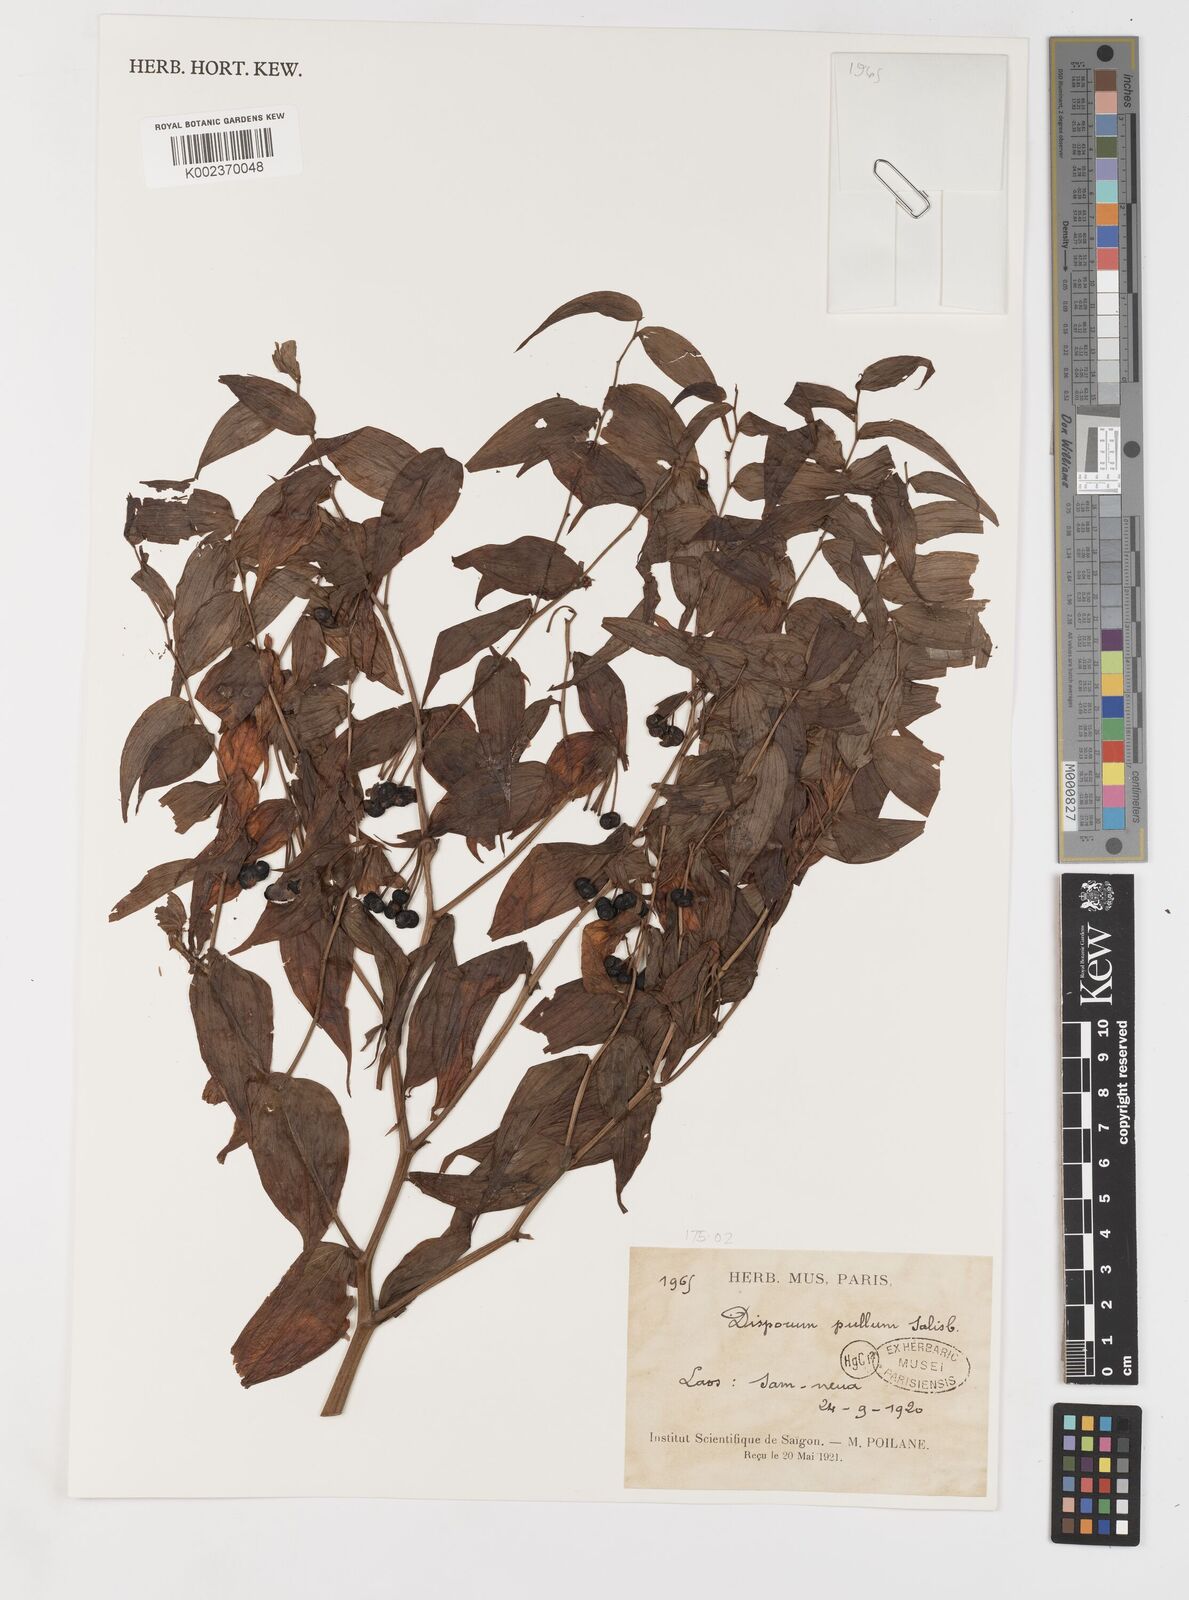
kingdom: Plantae
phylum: Tracheophyta
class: Liliopsida
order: Liliales
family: Colchicaceae
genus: Disporum
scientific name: Disporum cantoniense
